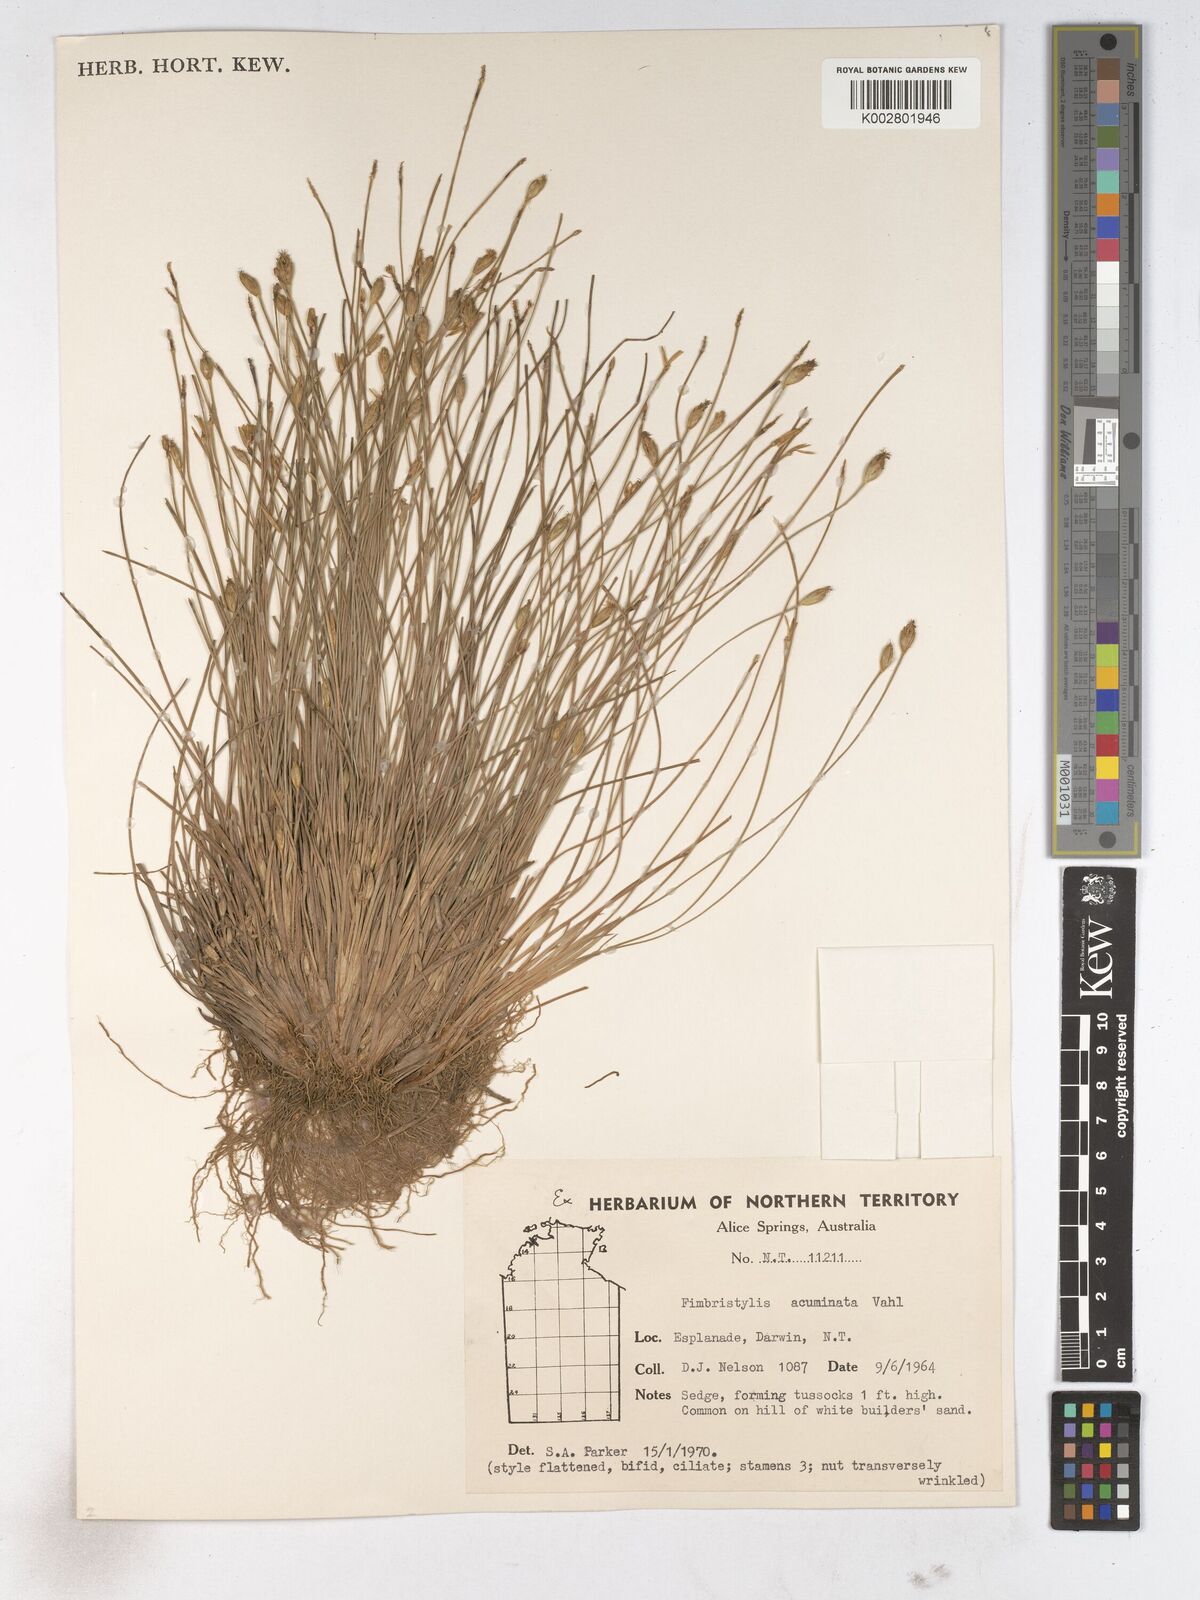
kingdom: Plantae
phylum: Tracheophyta
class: Liliopsida
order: Poales
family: Cyperaceae
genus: Fimbristylis
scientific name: Fimbristylis acuminata
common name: Pointed fimbristylis
